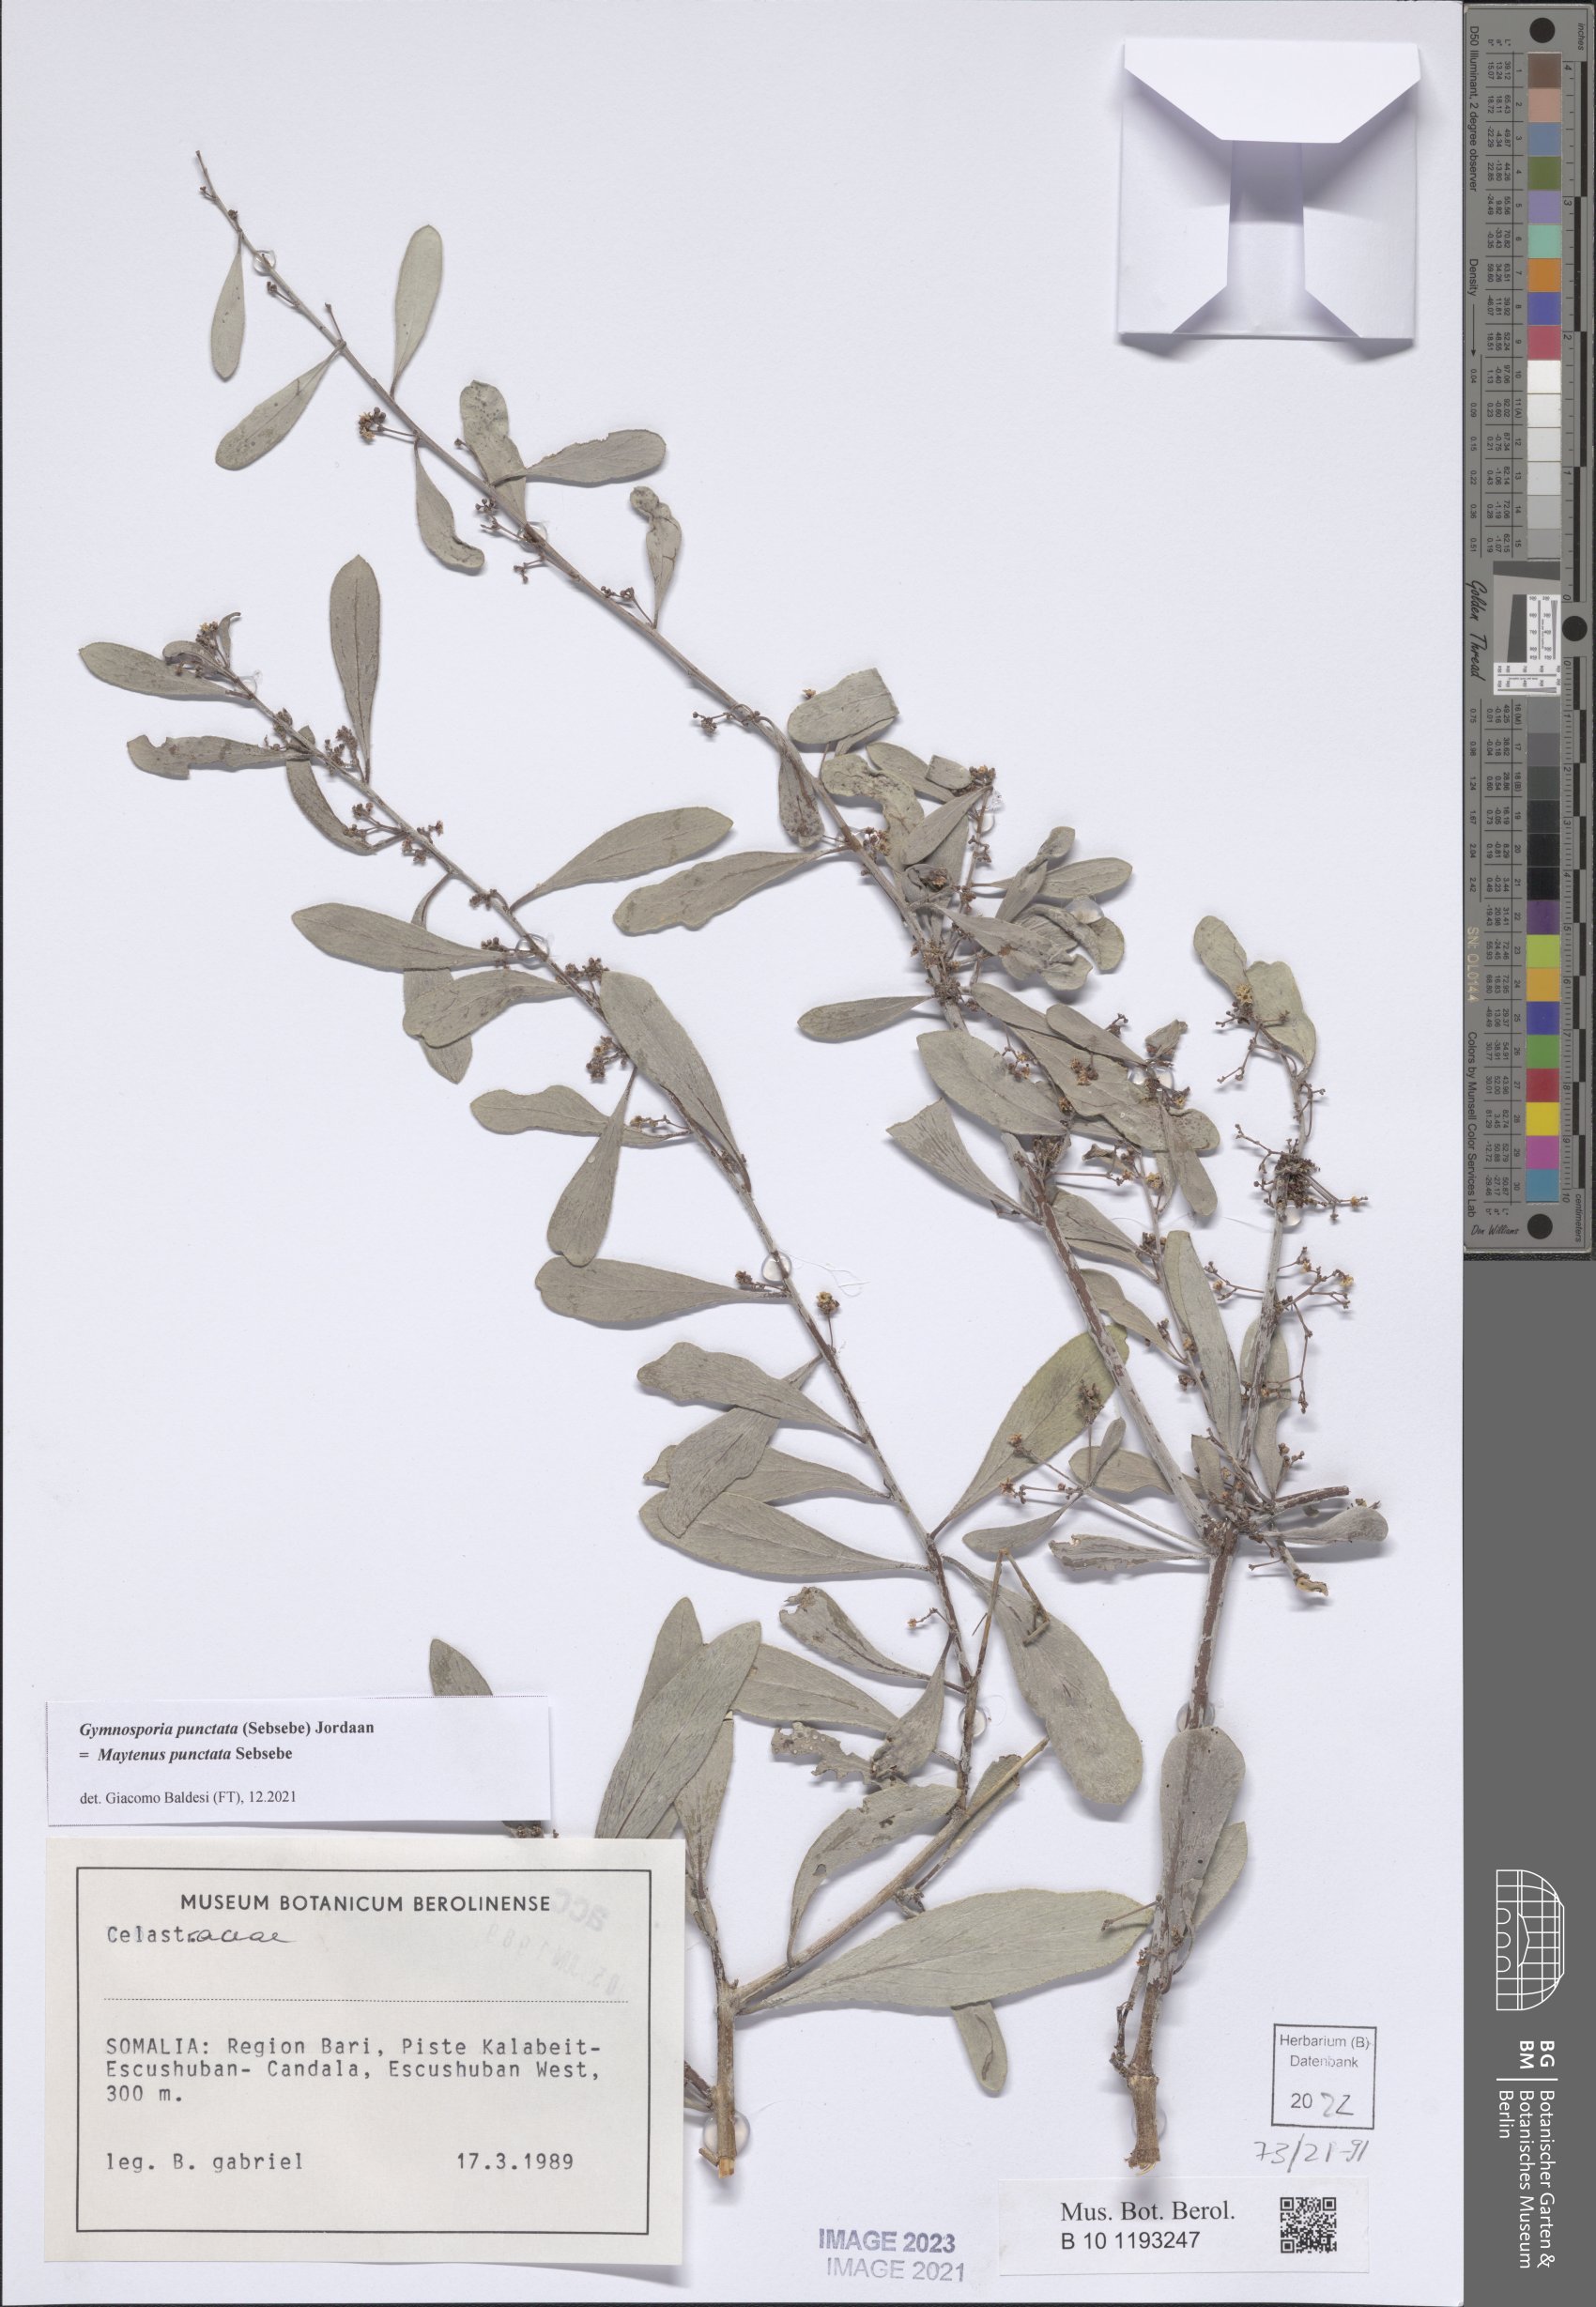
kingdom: Plantae
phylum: Tracheophyta
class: Magnoliopsida
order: Celastrales
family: Celastraceae
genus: Gymnosporia
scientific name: Gymnosporia punctata
